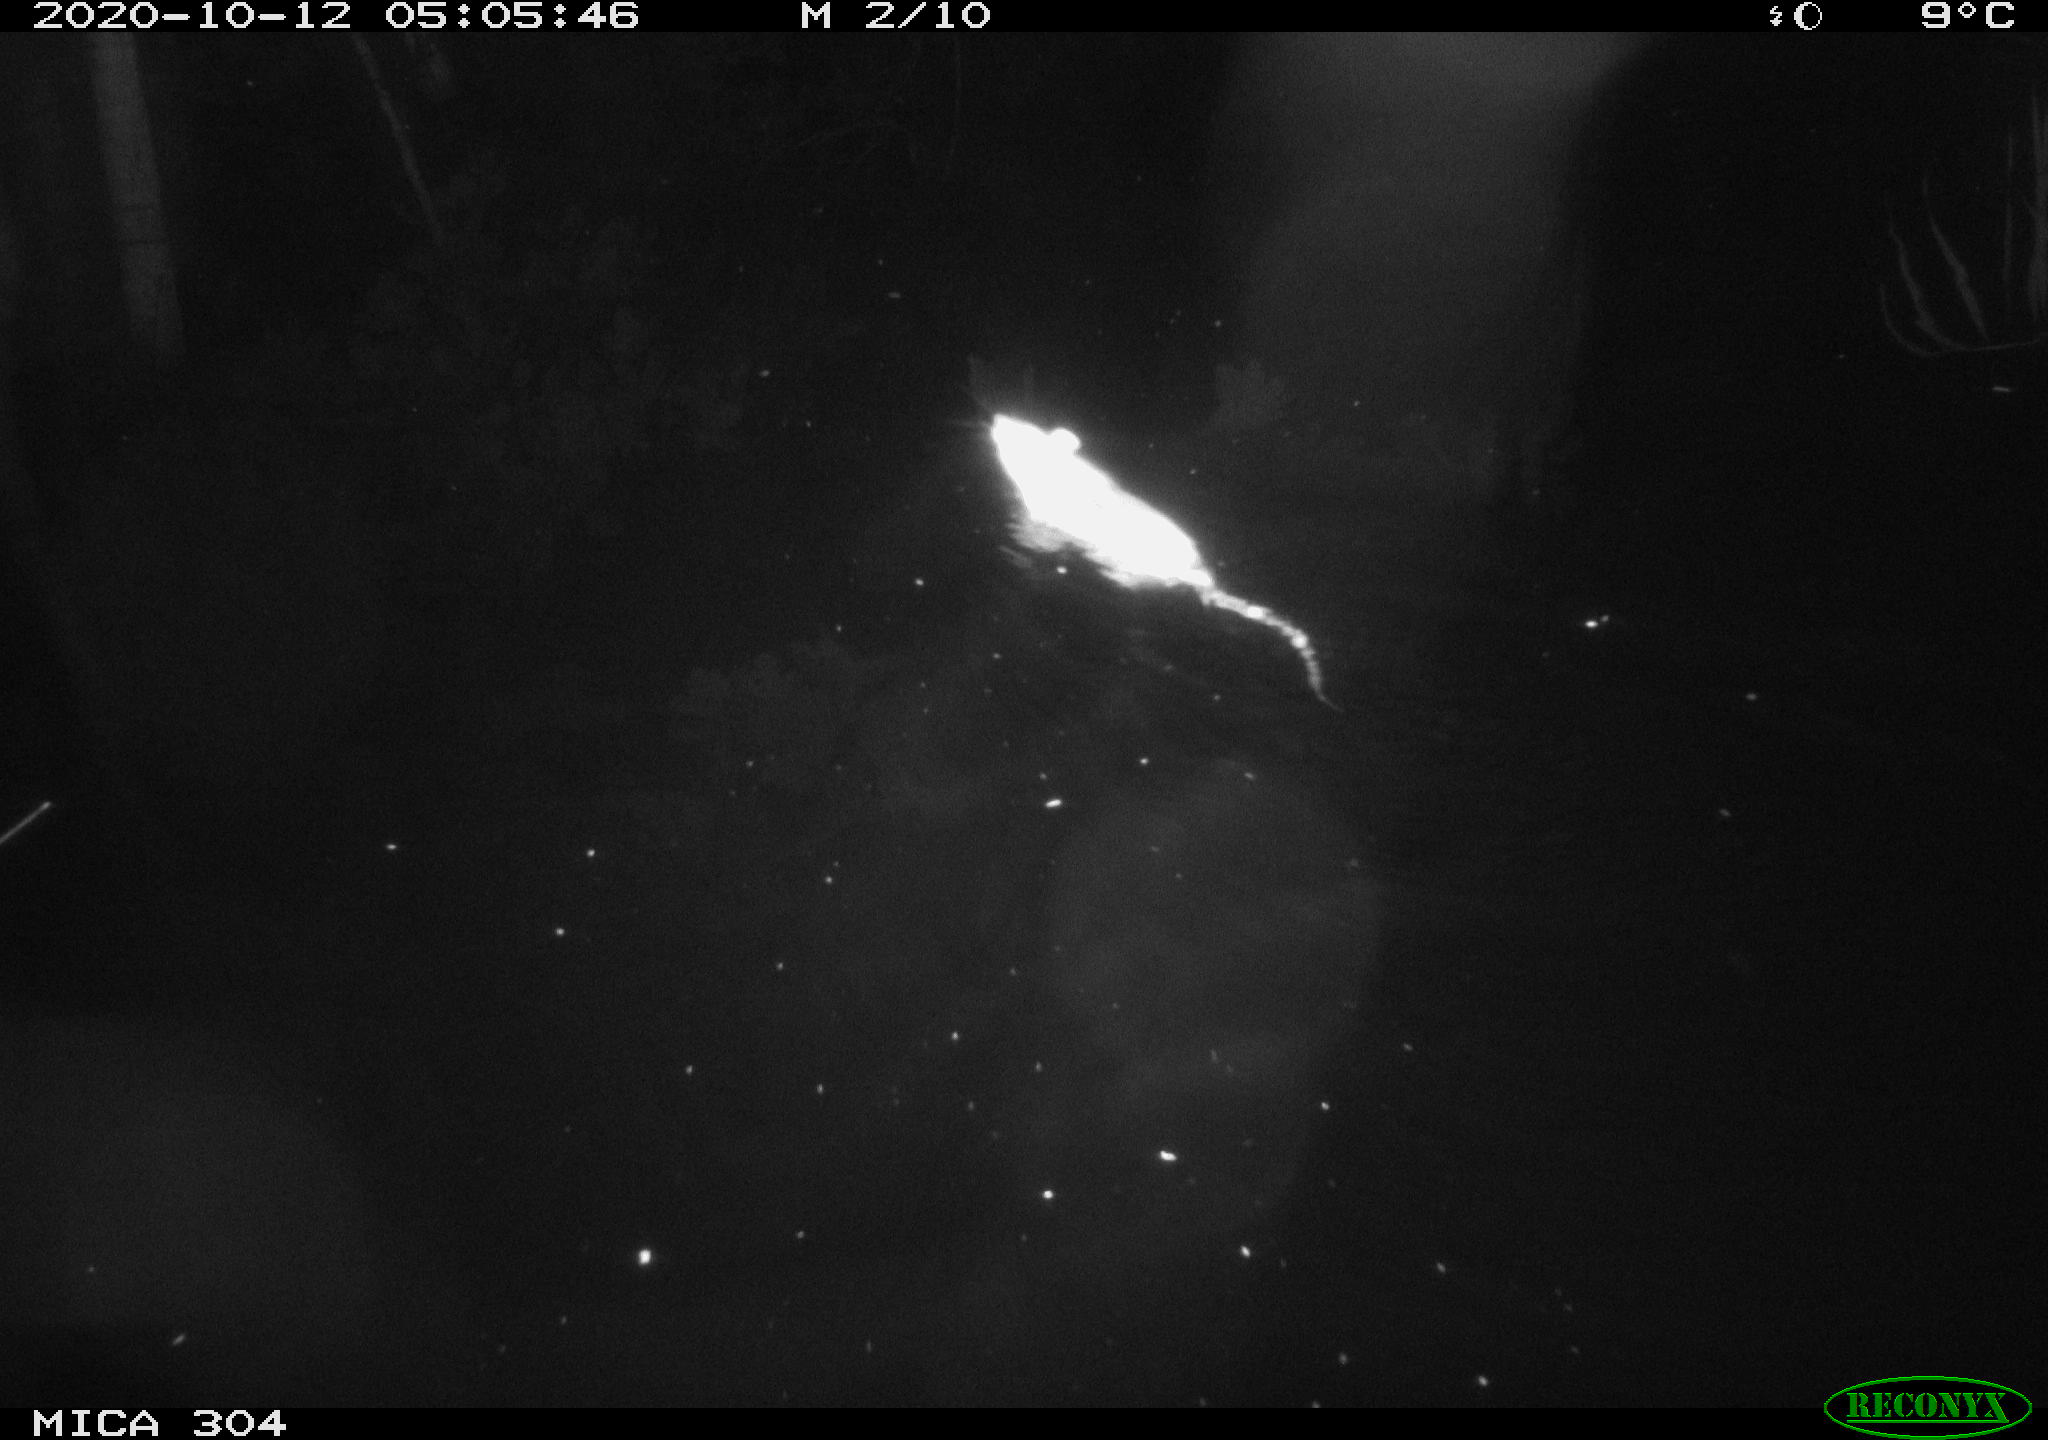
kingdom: Animalia
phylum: Chordata
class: Mammalia
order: Rodentia
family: Muridae
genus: Rattus
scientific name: Rattus norvegicus
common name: Brown rat
